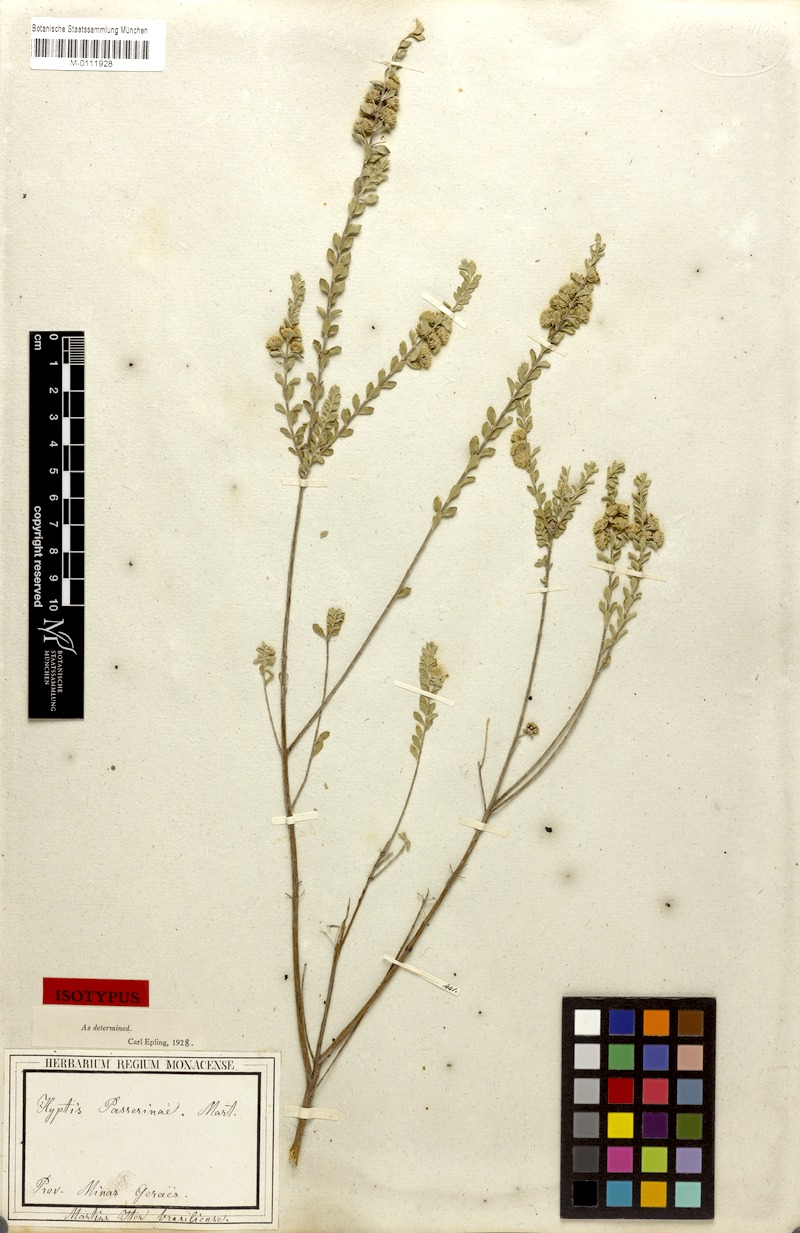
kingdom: Plantae
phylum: Tracheophyta
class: Magnoliopsida
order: Lamiales
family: Lamiaceae
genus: Hyptis
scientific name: Hyptis passerina
